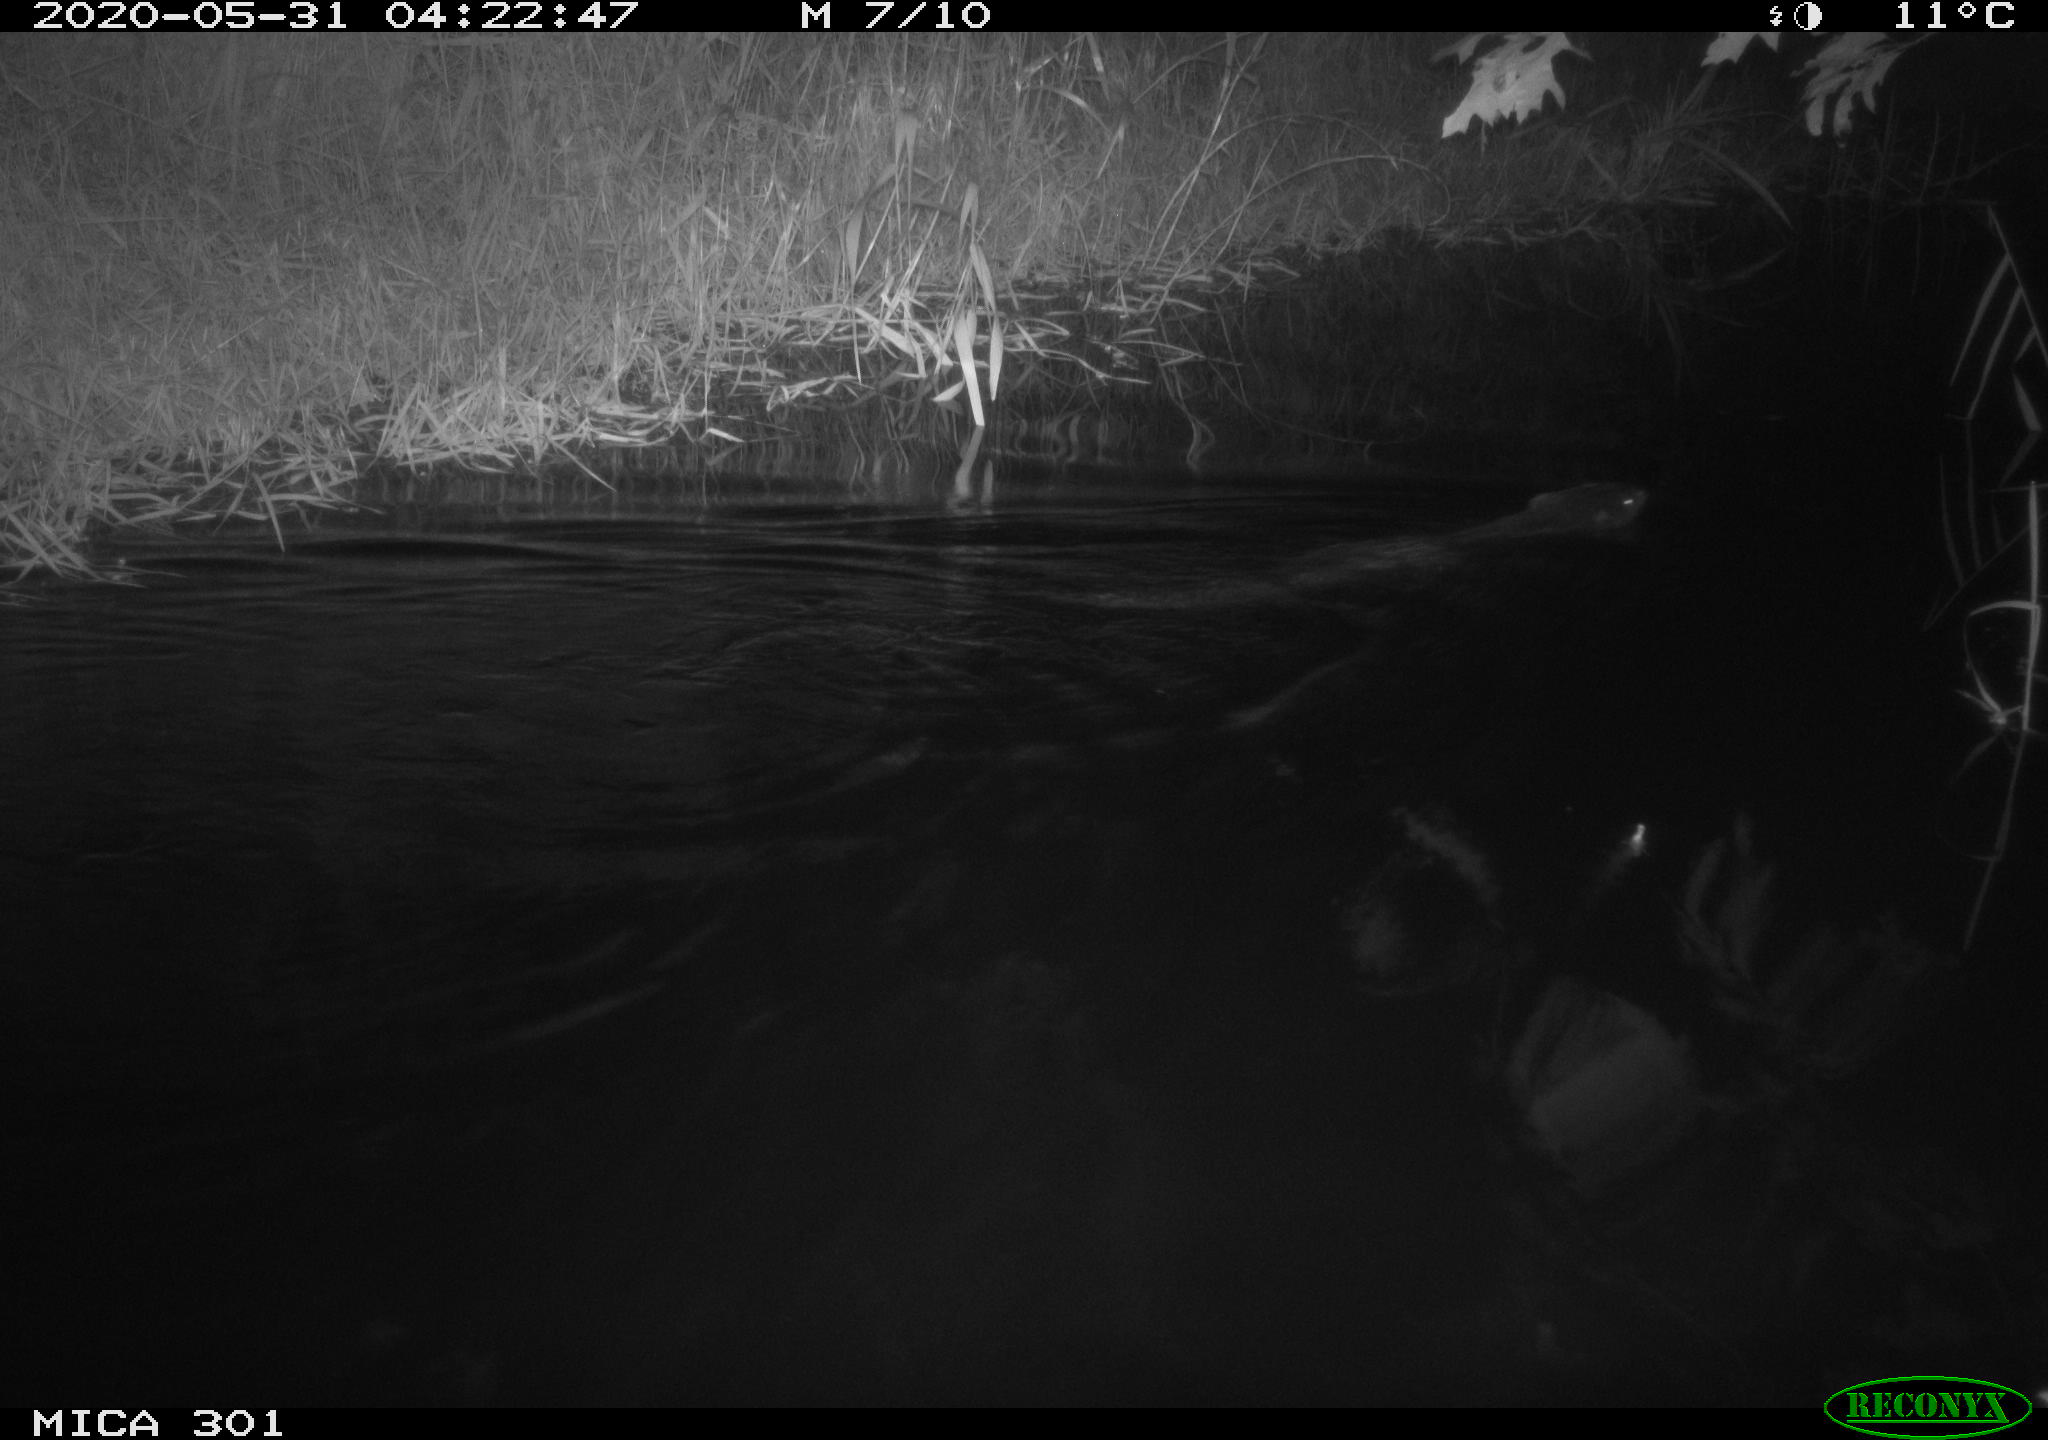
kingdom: Animalia
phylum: Chordata
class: Mammalia
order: Rodentia
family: Castoridae
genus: Castor
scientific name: Castor fiber
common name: Eurasian beaver
